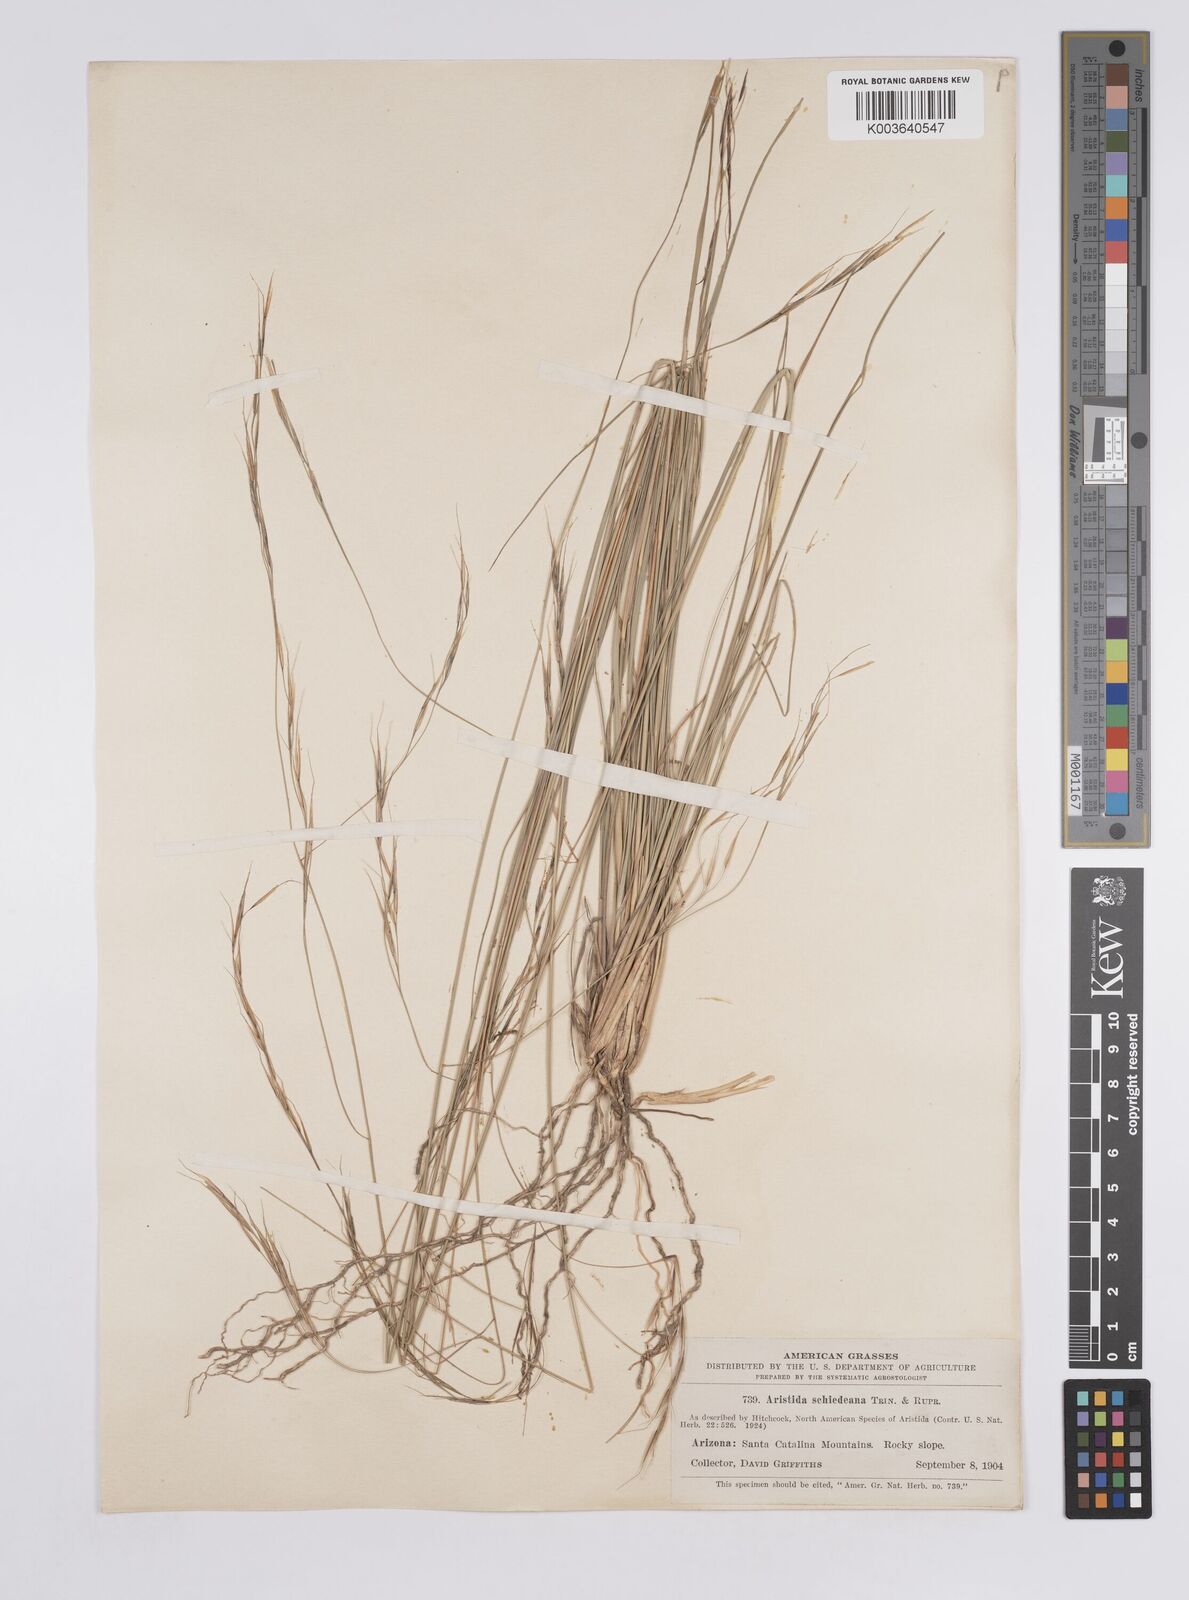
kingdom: Plantae
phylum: Tracheophyta
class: Liliopsida
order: Poales
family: Poaceae
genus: Aristida
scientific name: Aristida schiedeana
